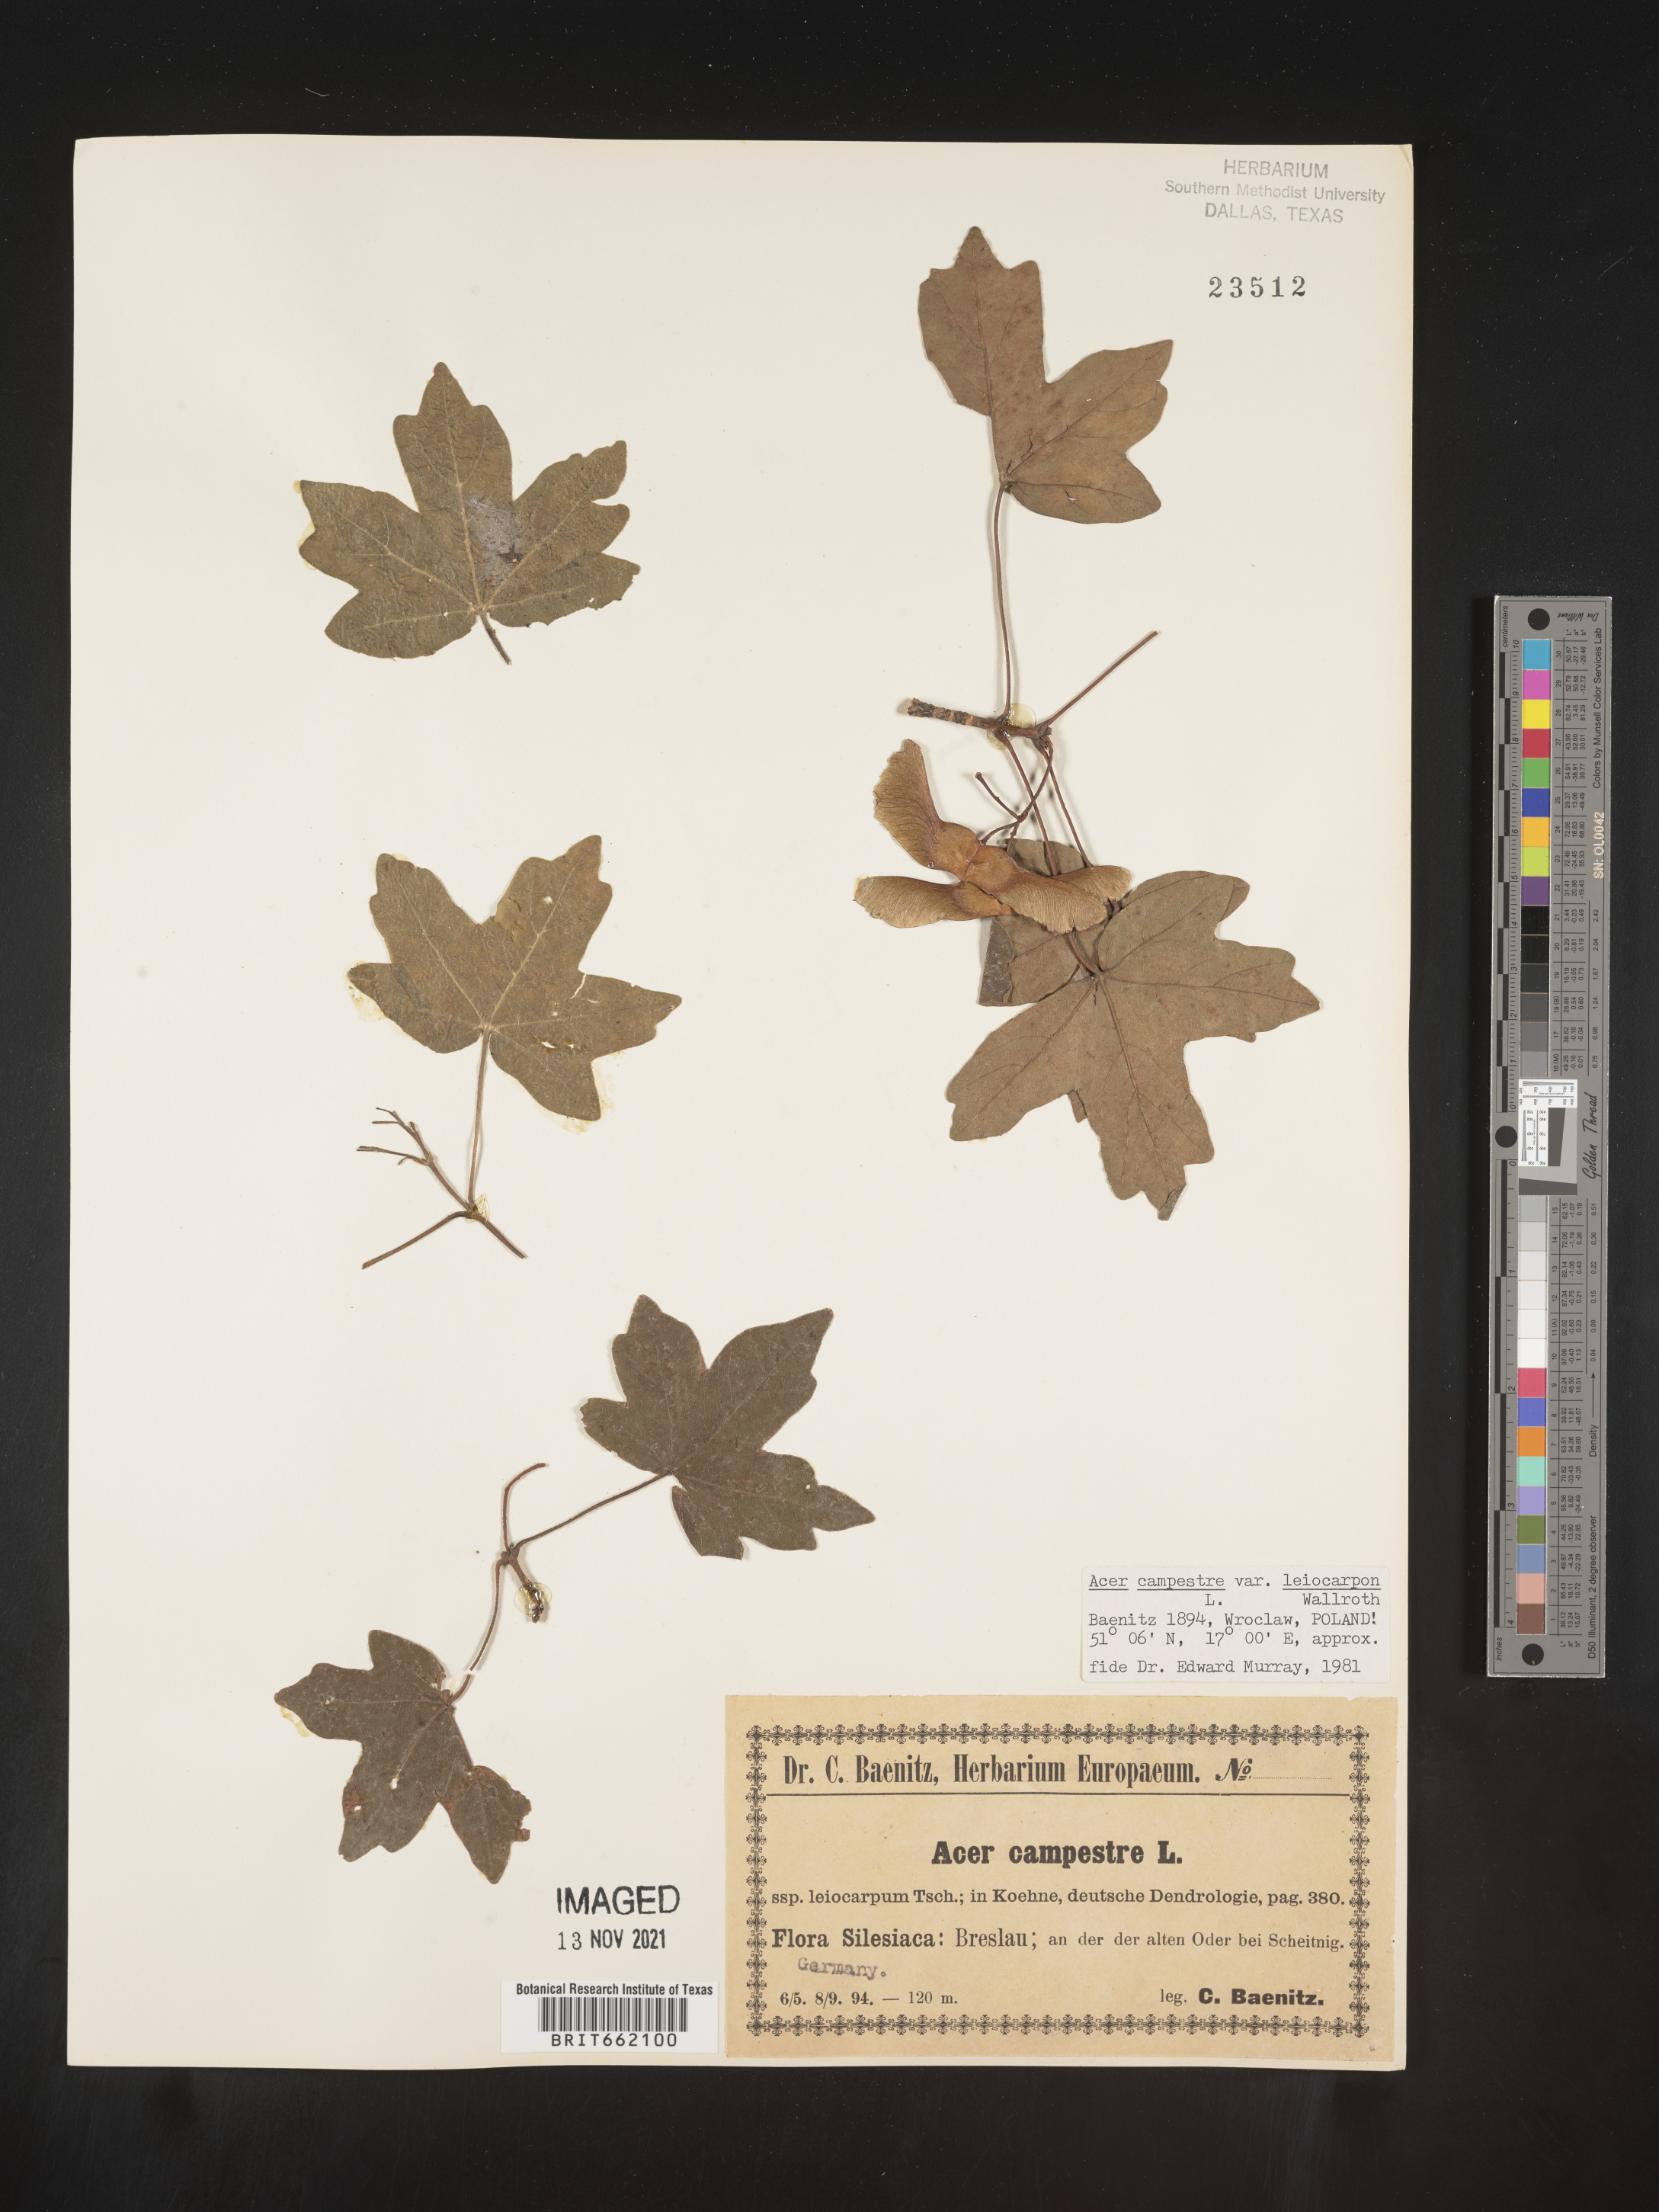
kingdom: Plantae
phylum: Tracheophyta
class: Magnoliopsida
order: Sapindales
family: Sapindaceae
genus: Acer
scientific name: Acer
